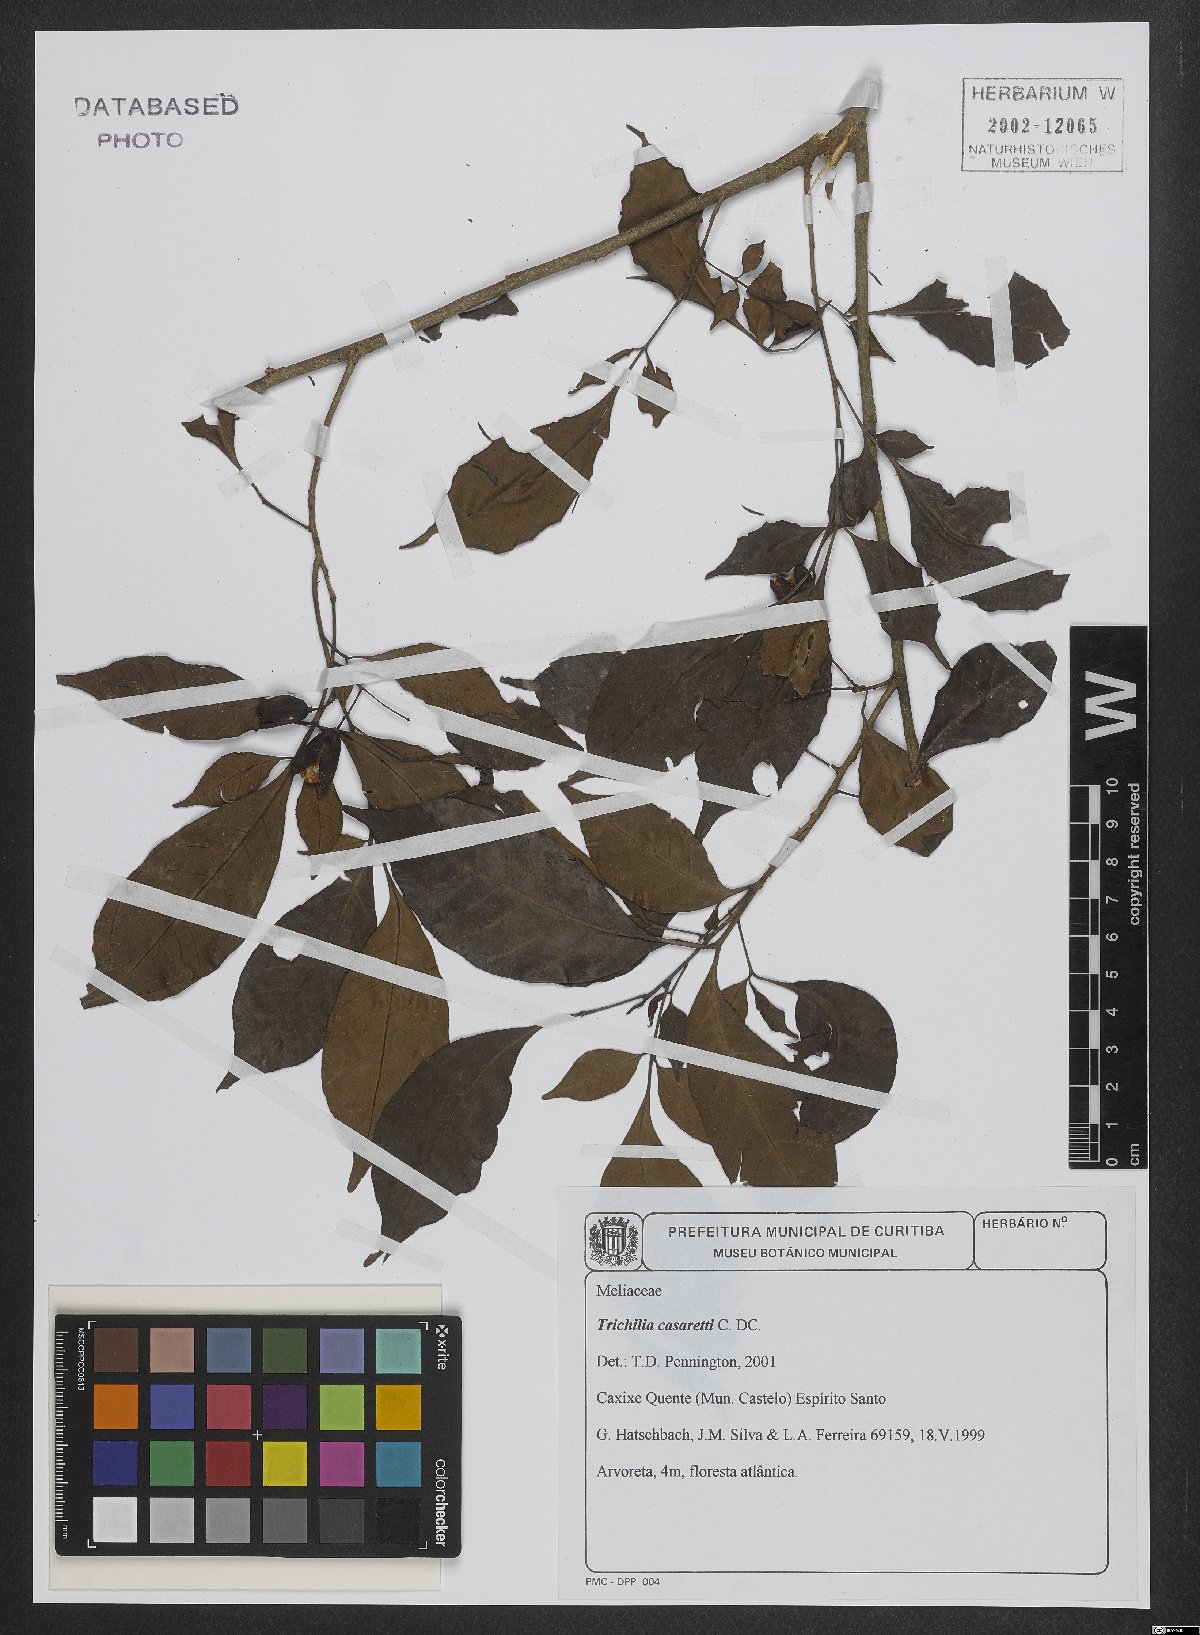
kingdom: Plantae
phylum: Tracheophyta
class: Magnoliopsida
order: Sapindales
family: Meliaceae
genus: Trichilia
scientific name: Trichilia casarettoi
